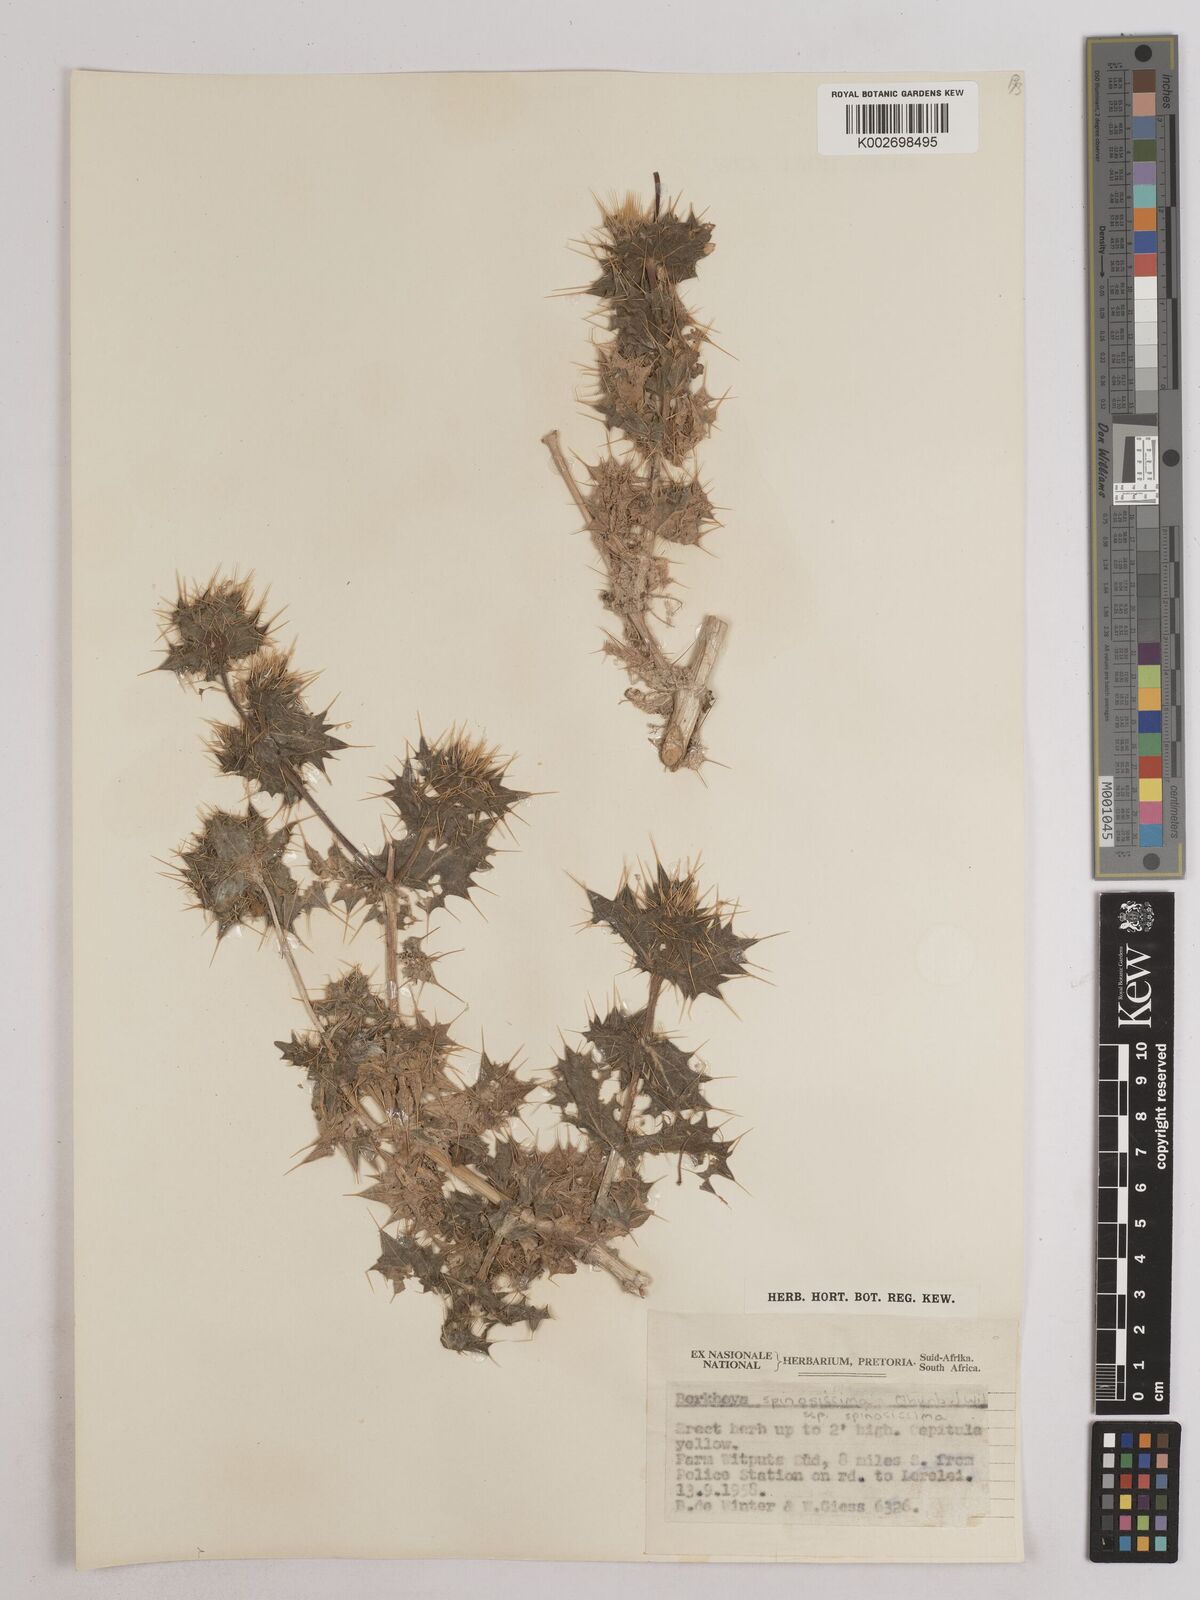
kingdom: Plantae
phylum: Tracheophyta
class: Magnoliopsida
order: Asterales
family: Asteraceae
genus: Berkheya
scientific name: Berkheya spinosissima
